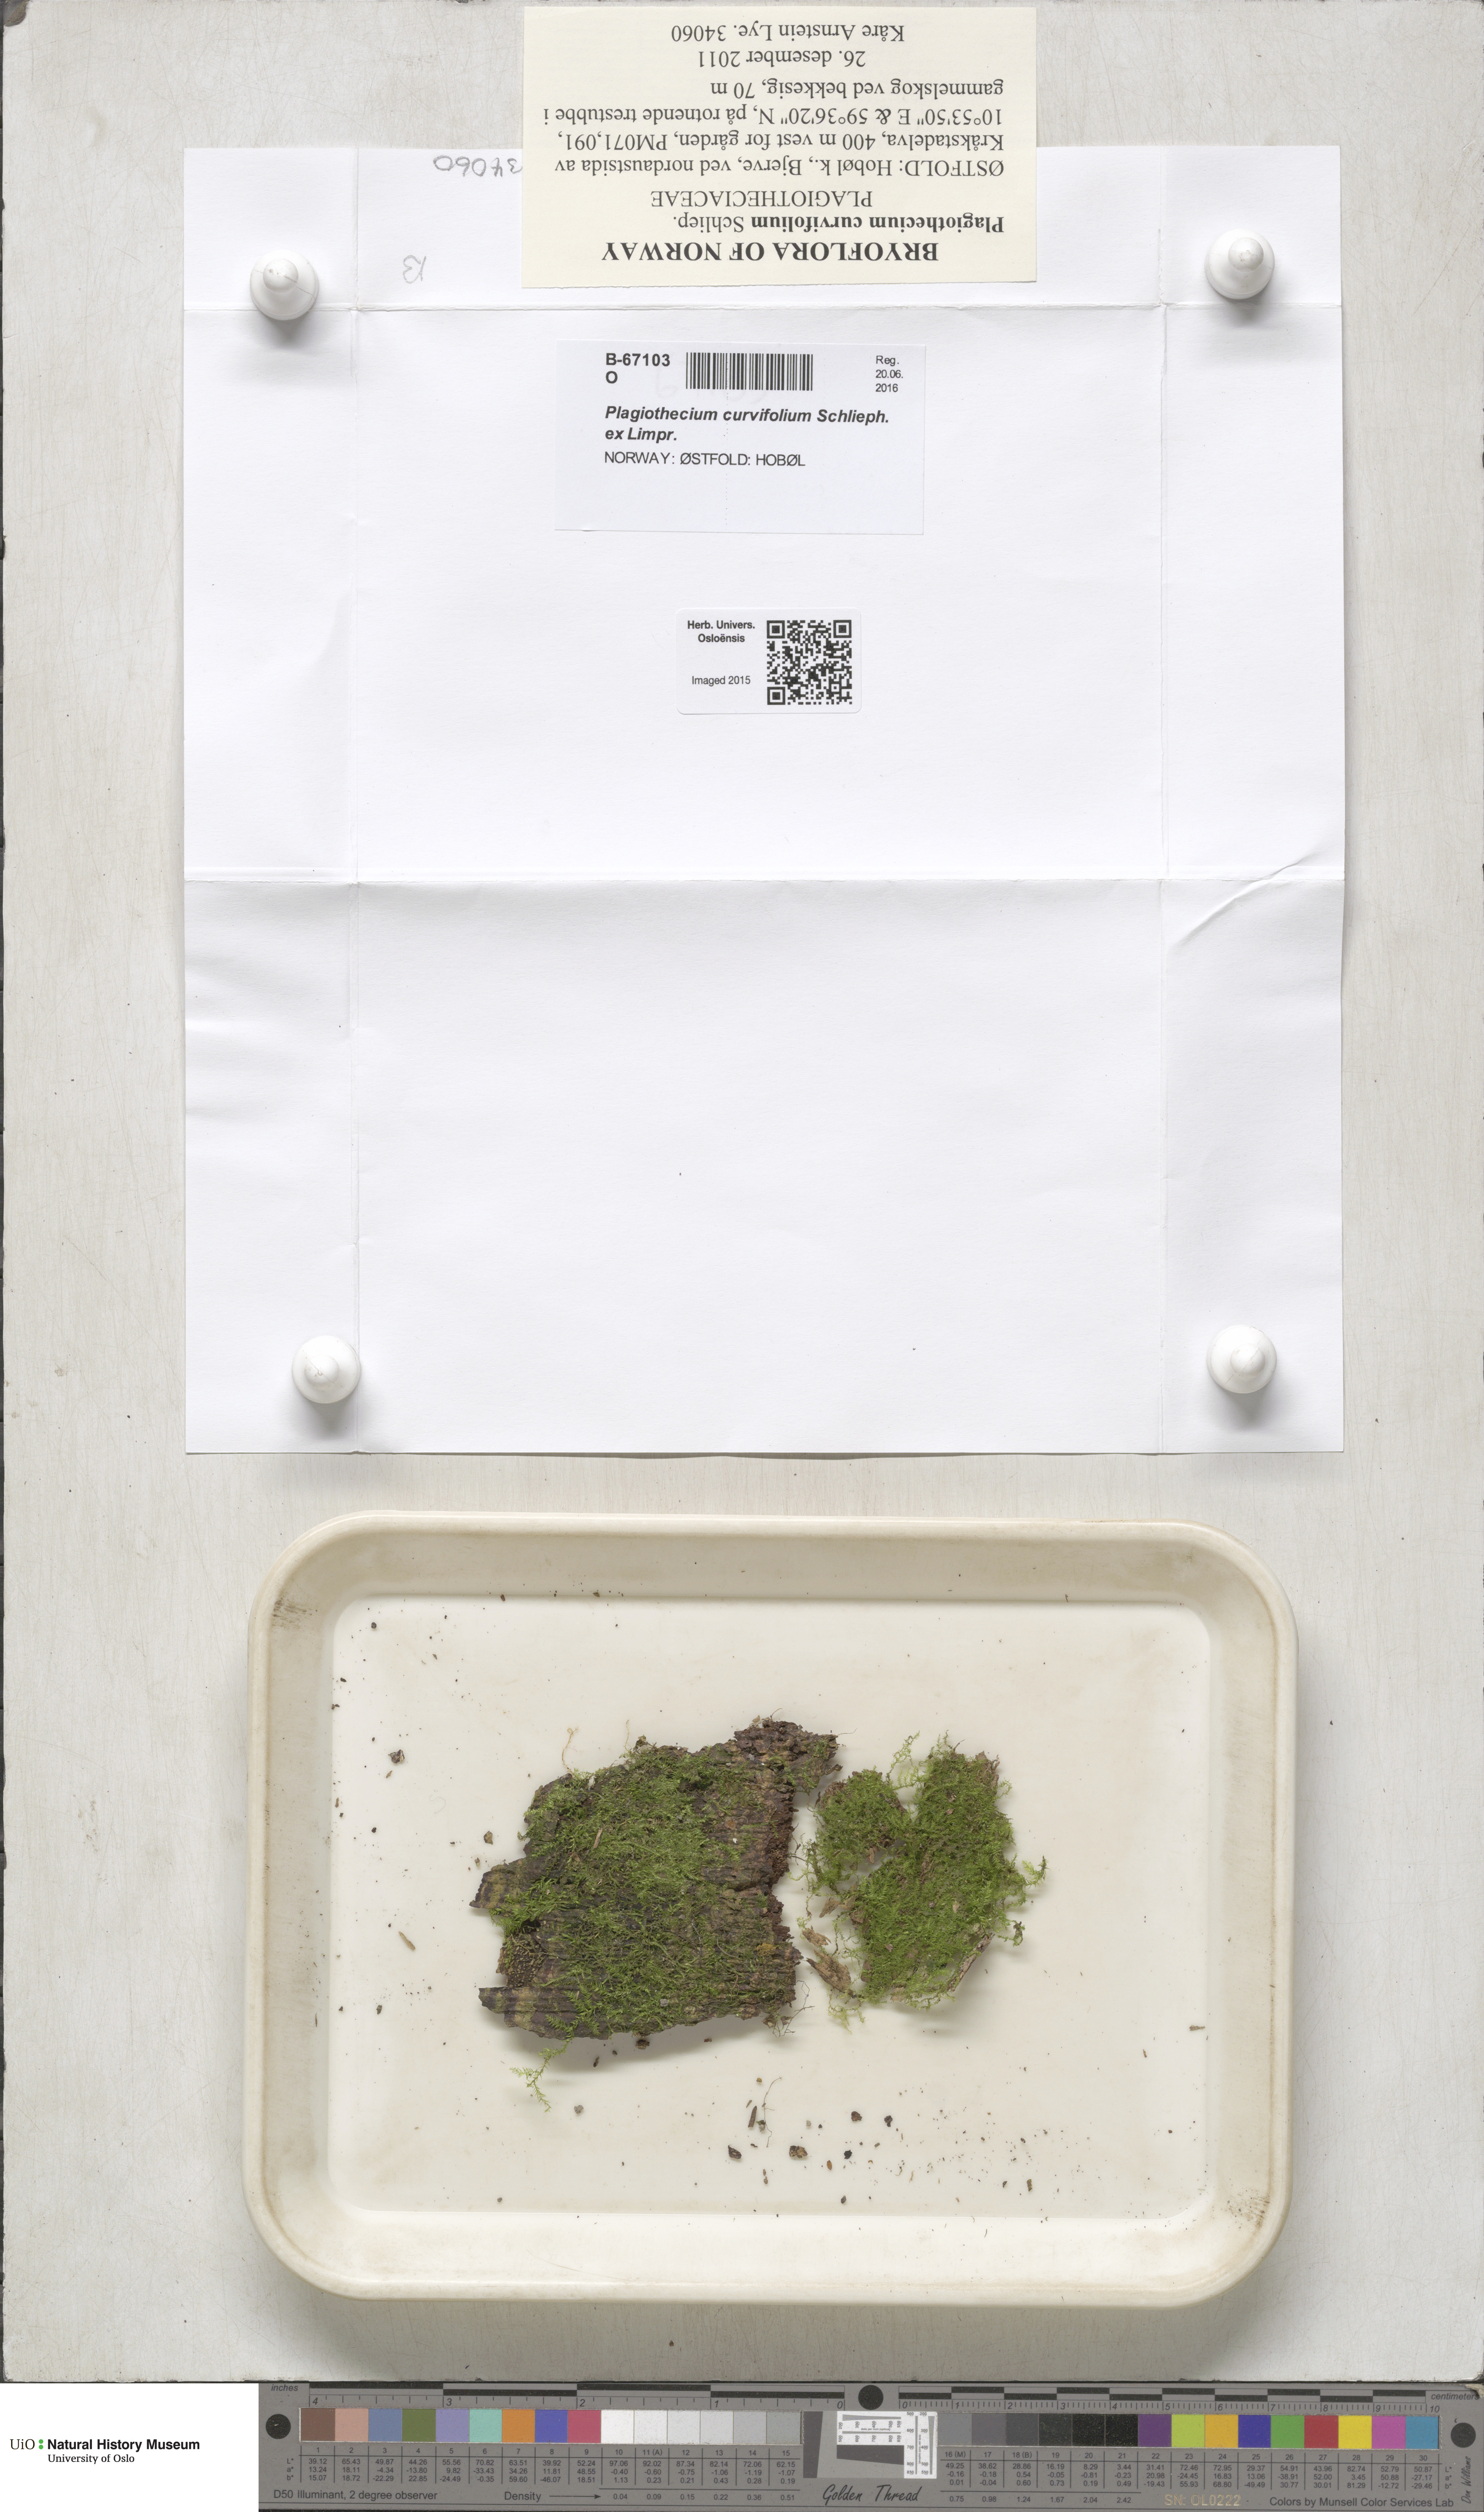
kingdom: Plantae
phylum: Bryophyta
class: Bryopsida
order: Hypnales
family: Plagiotheciaceae
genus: Plagiothecium
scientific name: Plagiothecium curvifolium
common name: Curved silk-moss
